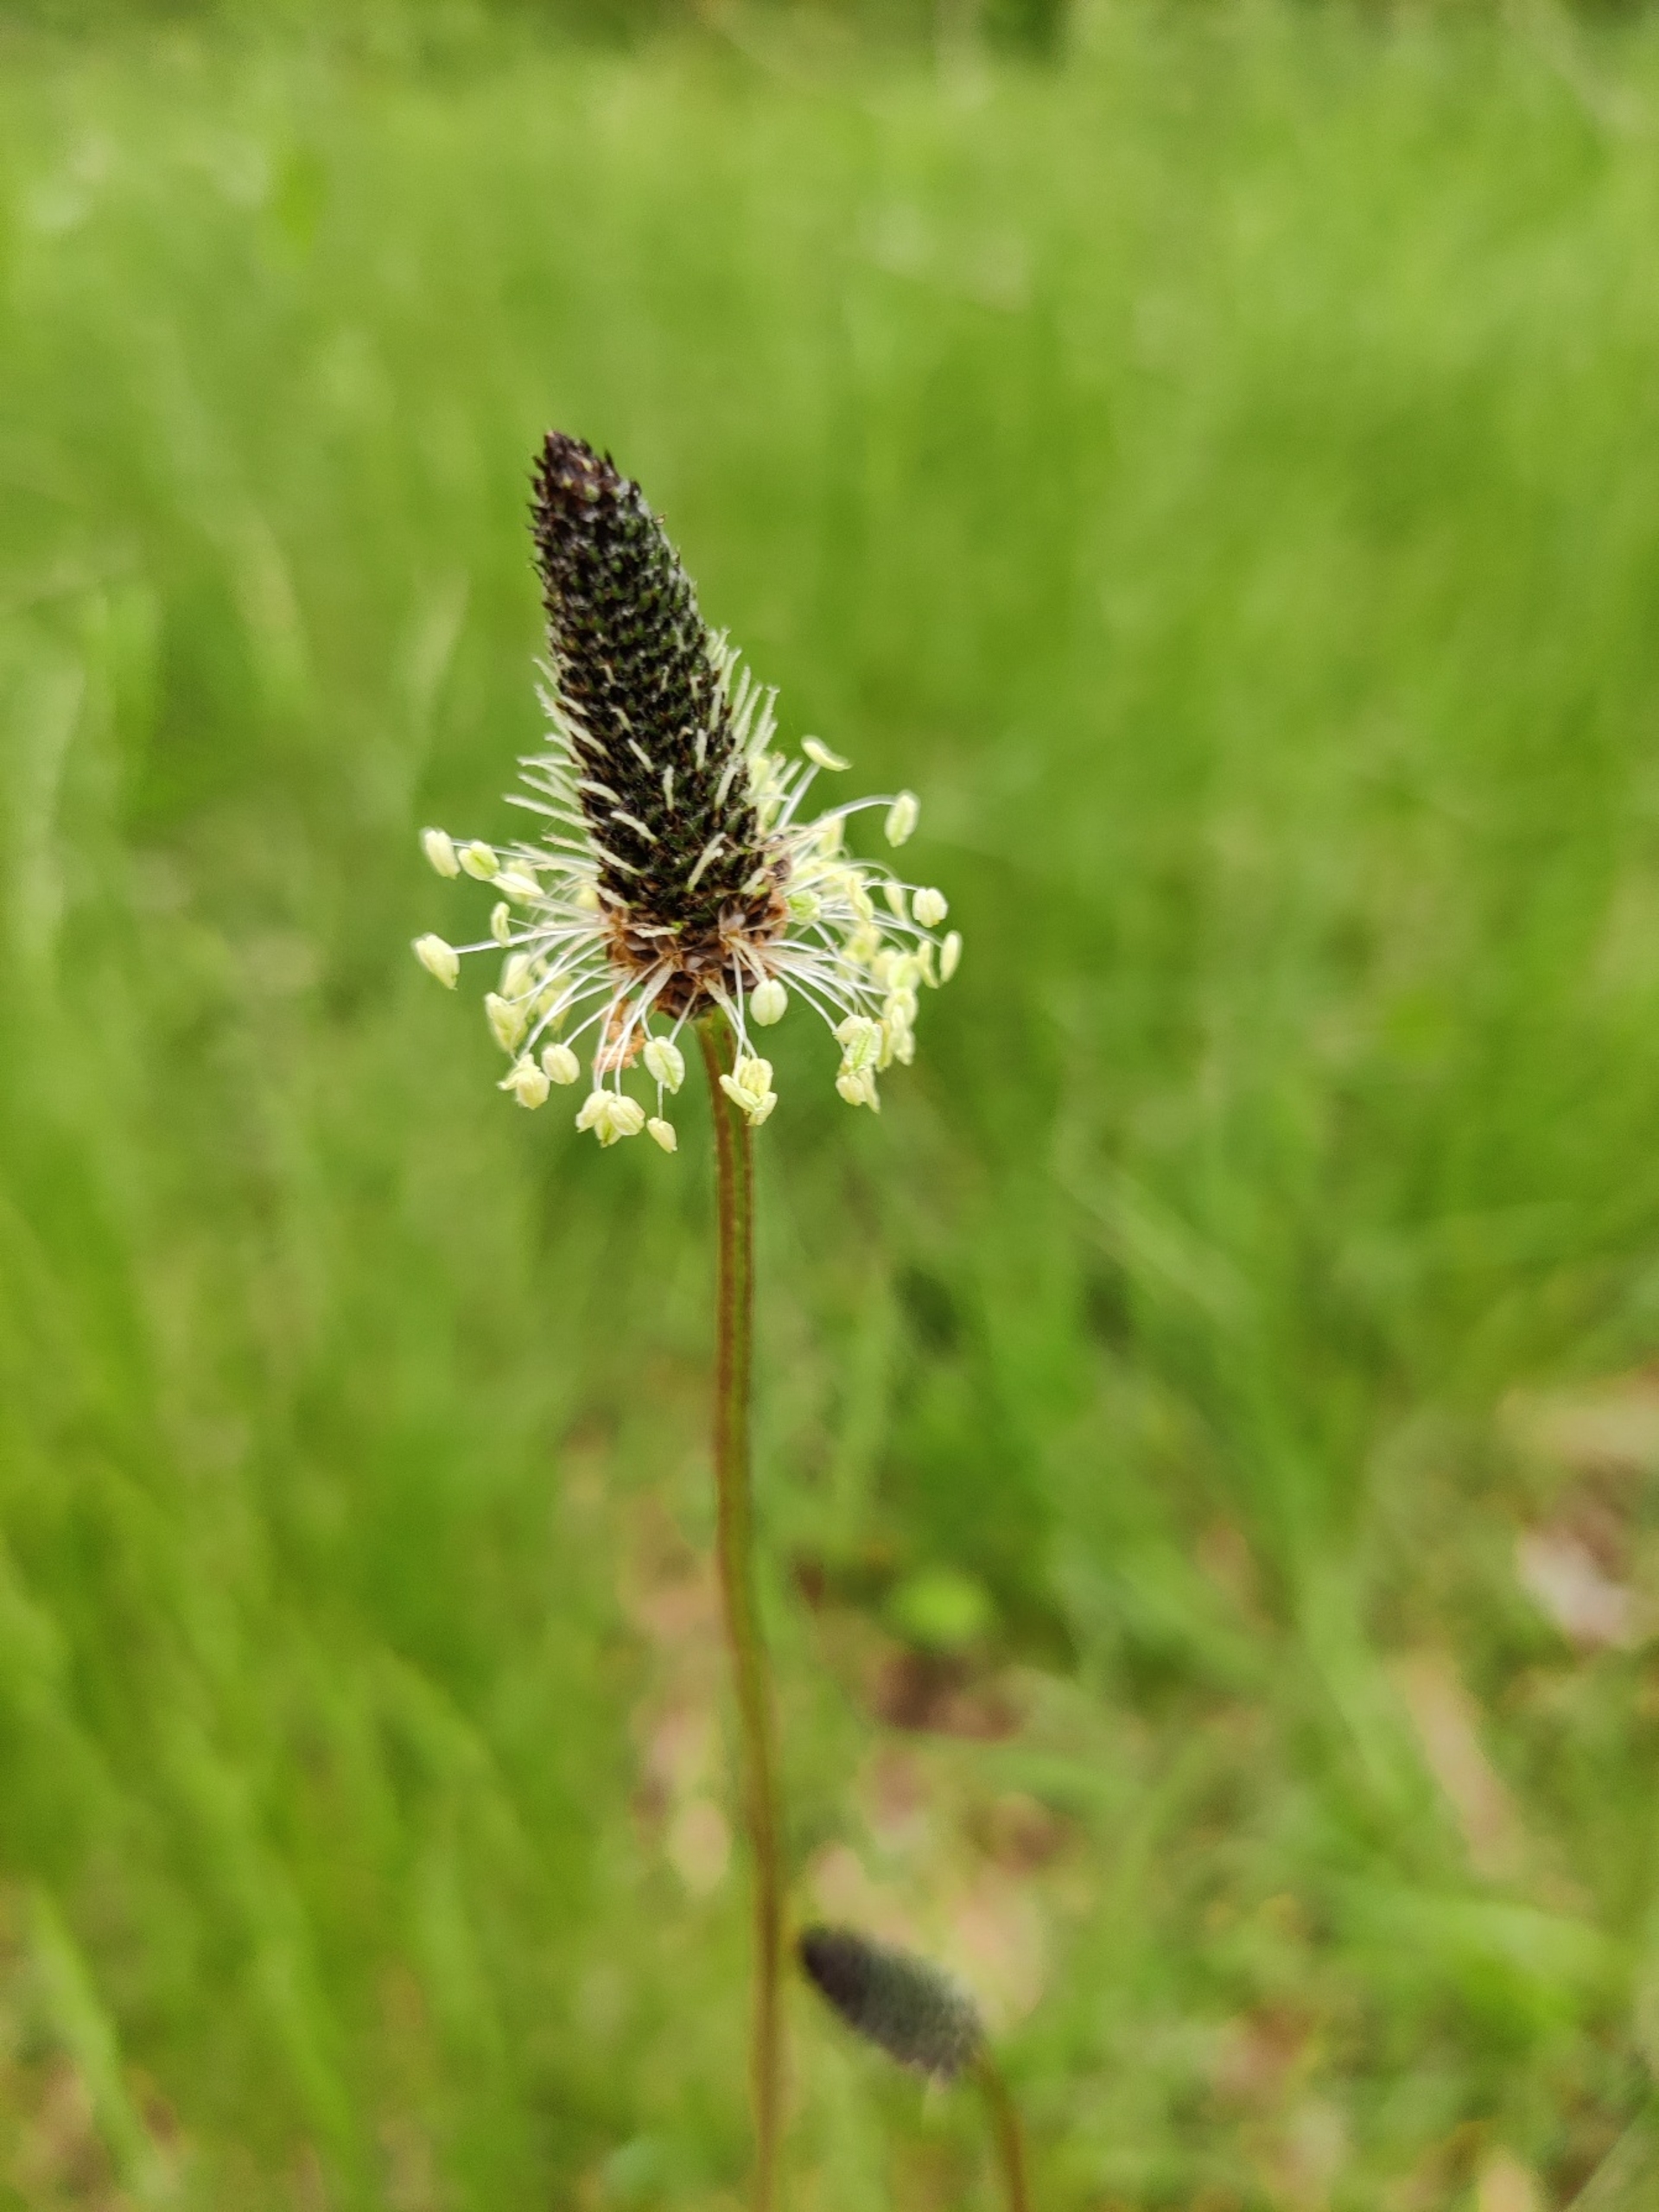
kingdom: Plantae
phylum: Tracheophyta
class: Magnoliopsida
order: Lamiales
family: Plantaginaceae
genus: Plantago
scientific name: Plantago lanceolata
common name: Lancet-vejbred
